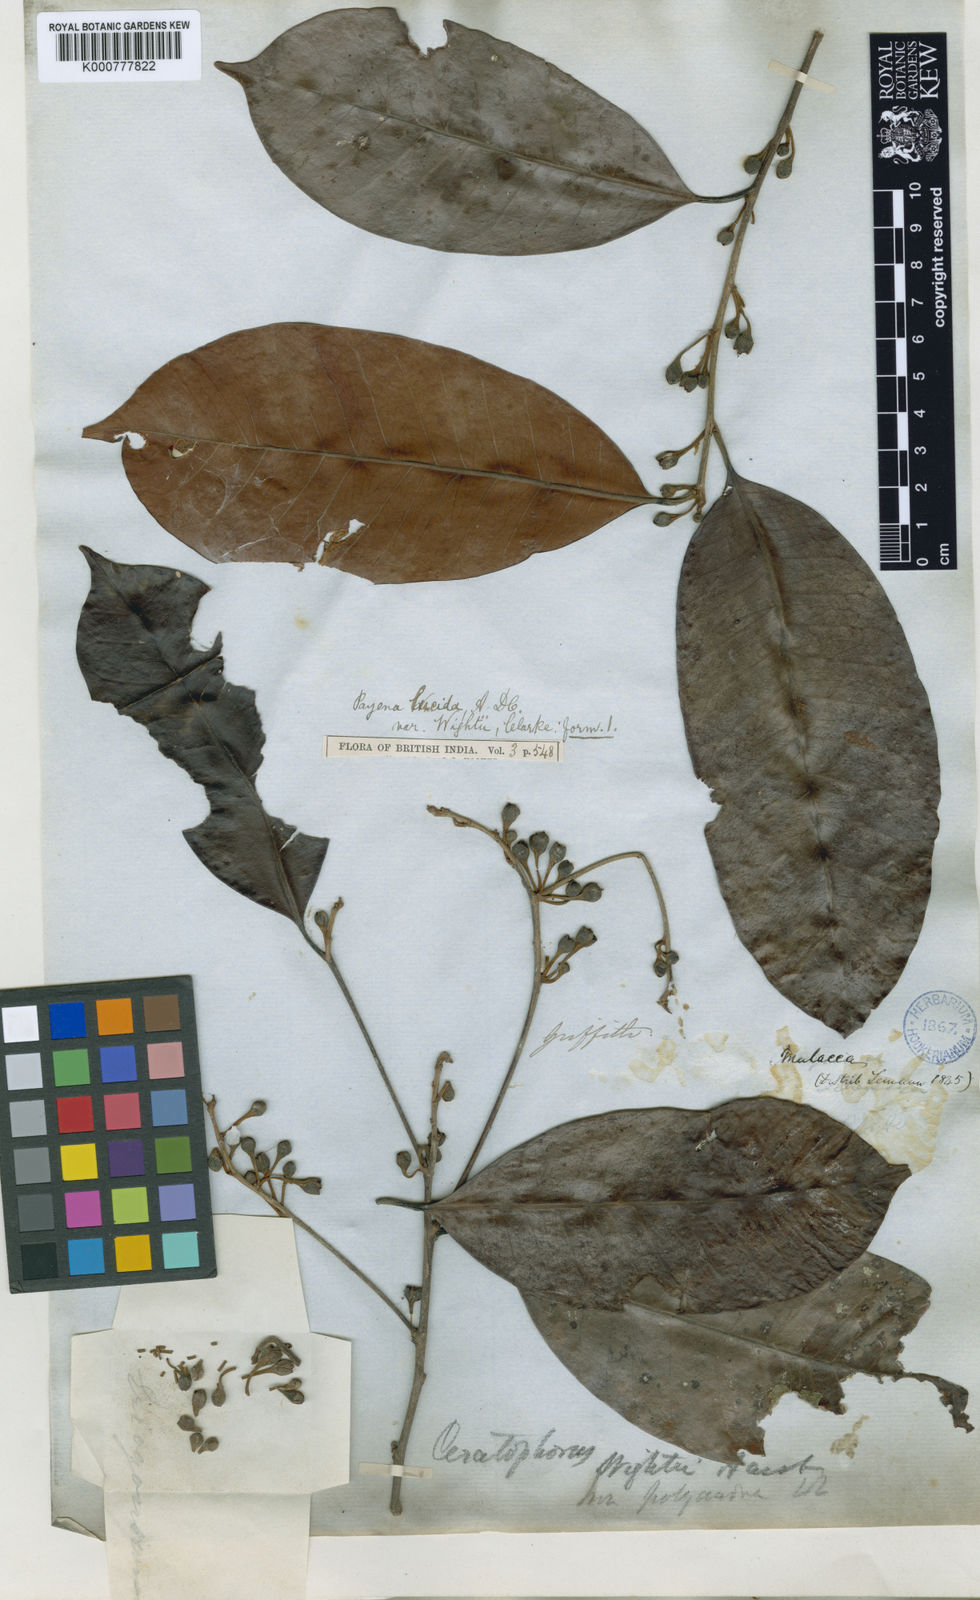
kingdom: Plantae
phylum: Tracheophyta
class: Magnoliopsida
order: Ericales
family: Sapotaceae
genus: Payena
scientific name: Payena lucida
